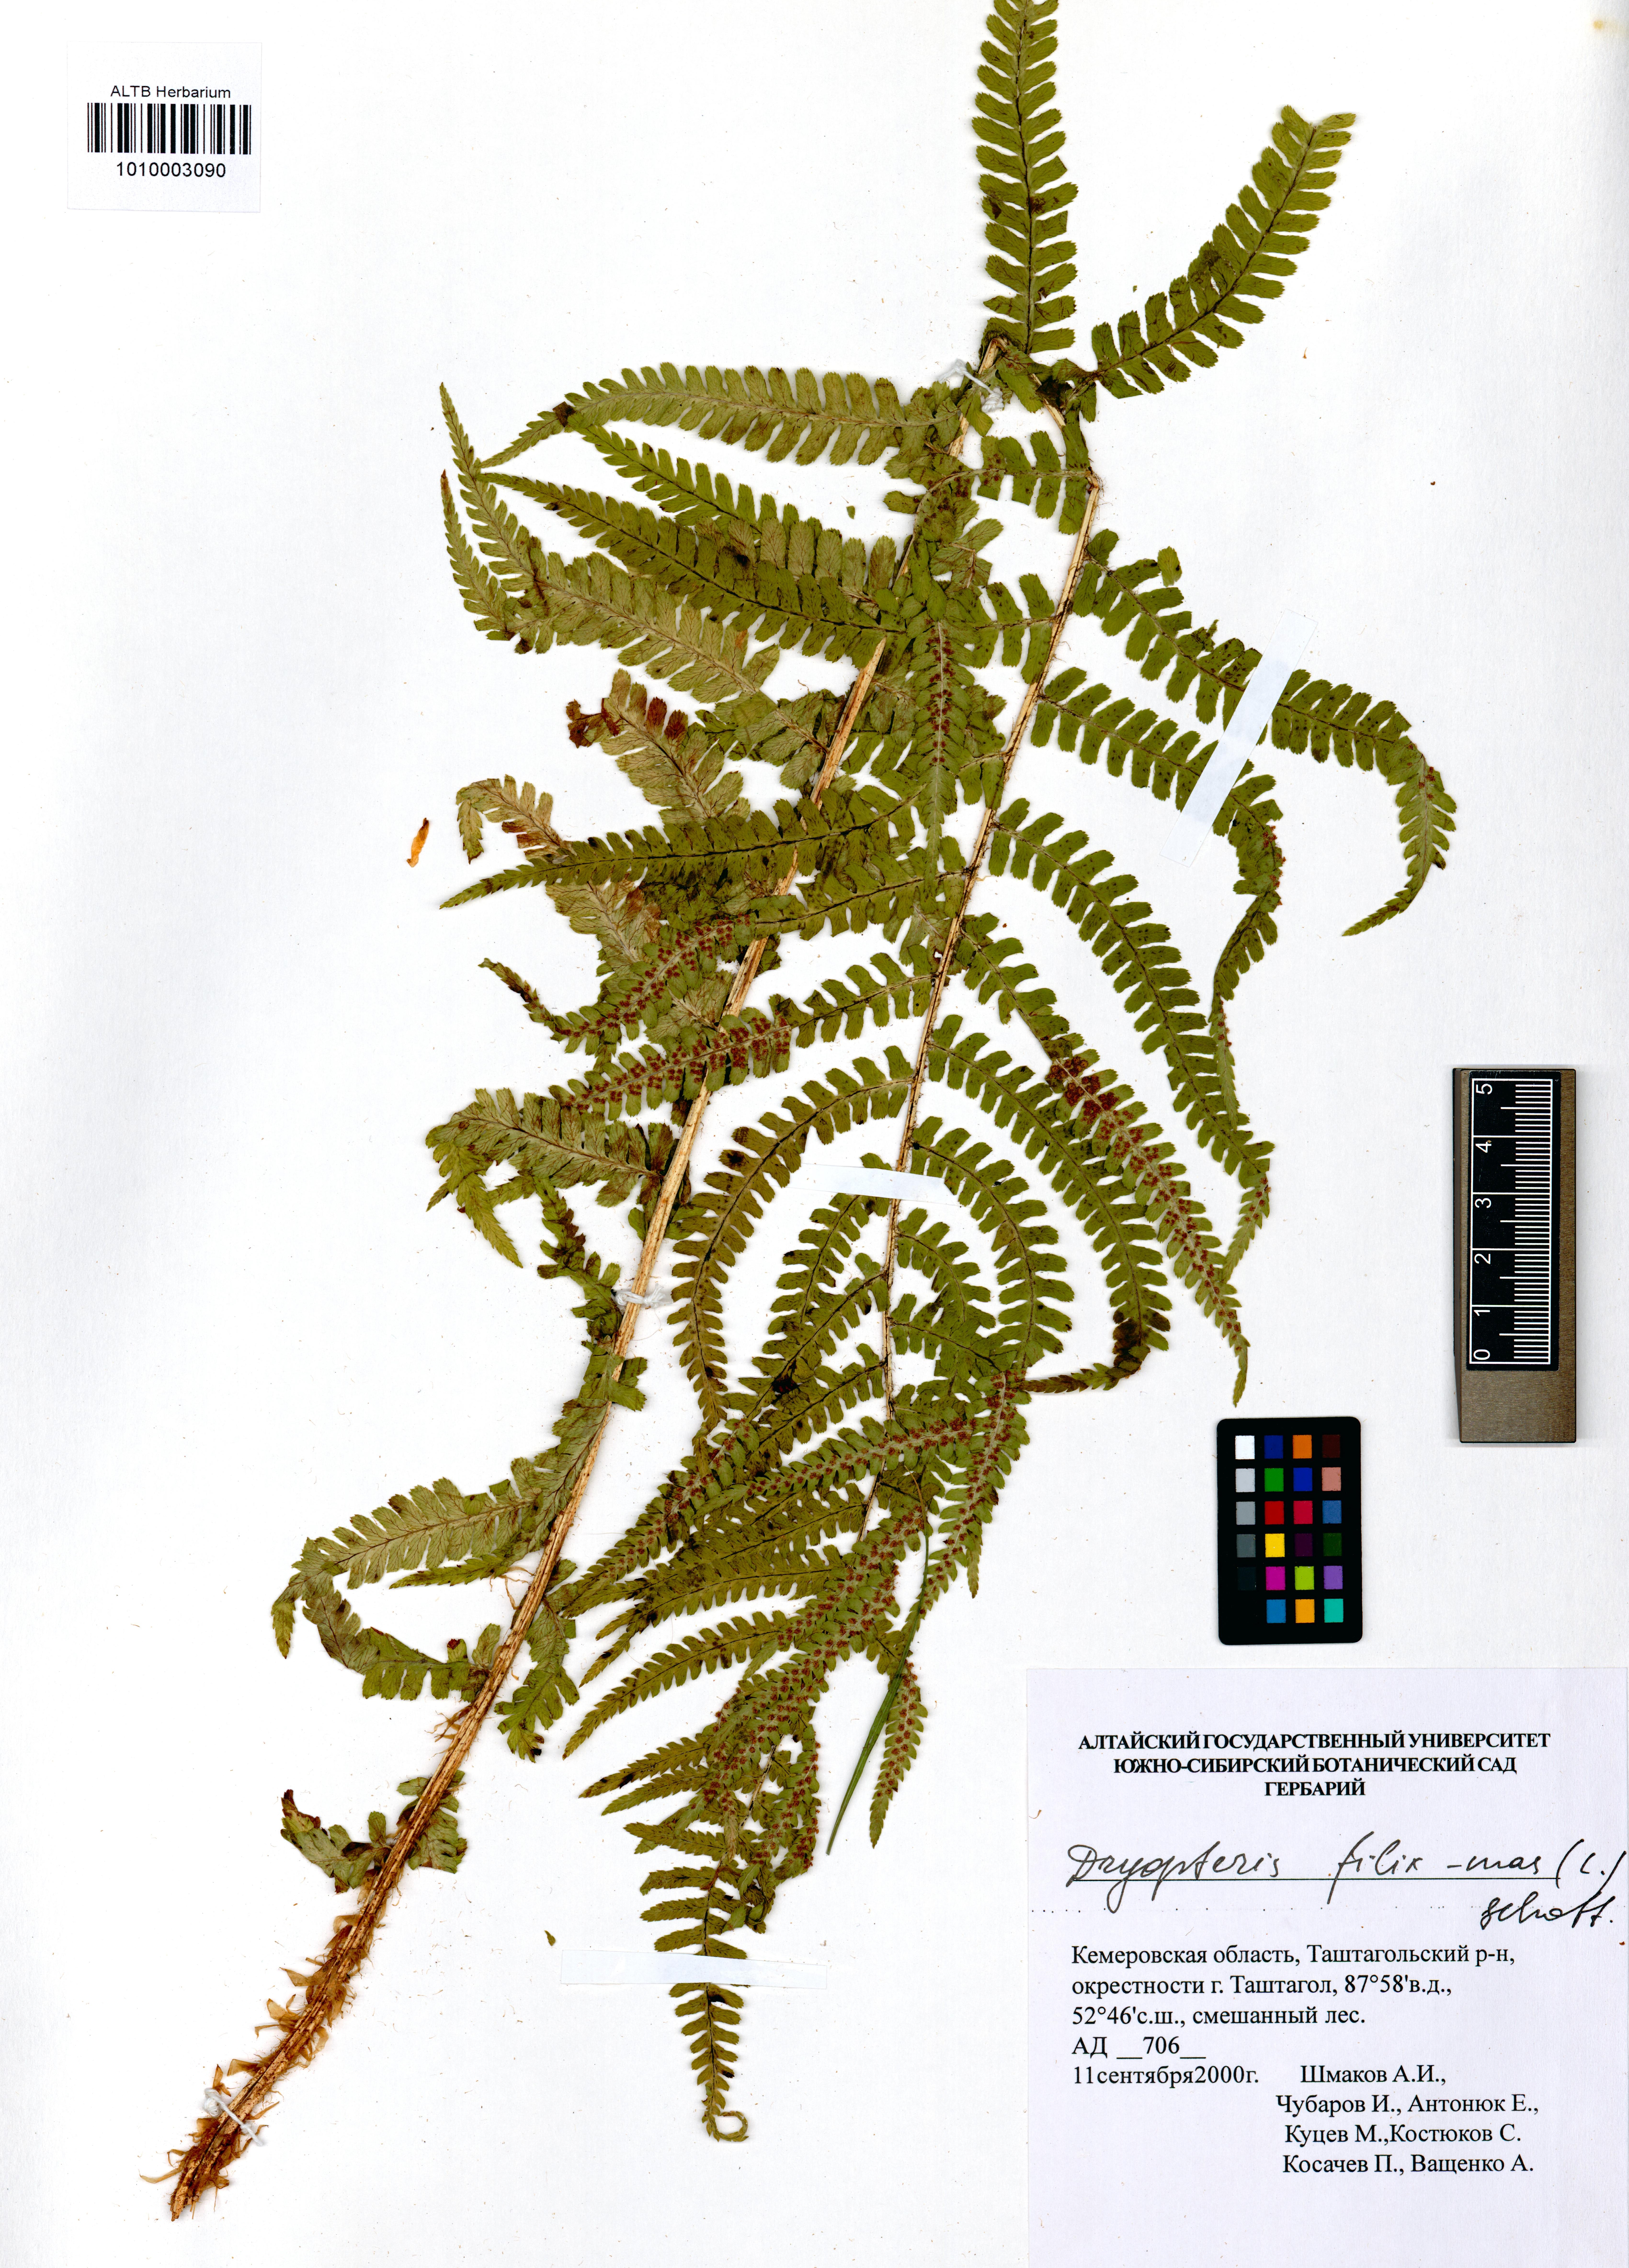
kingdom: Plantae
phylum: Tracheophyta
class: Polypodiopsida
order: Polypodiales
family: Dryopteridaceae
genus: Dryopteris
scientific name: Dryopteris filix-mas
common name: Male fern
